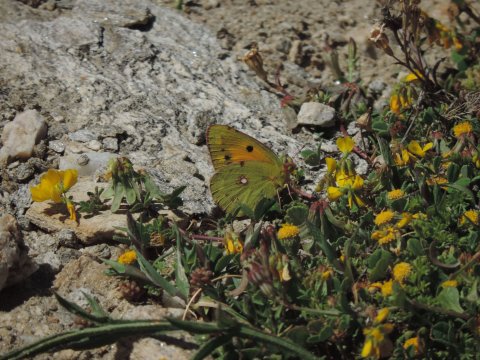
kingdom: Animalia
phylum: Arthropoda
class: Insecta
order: Lepidoptera
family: Pieridae
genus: Colias
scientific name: Colias croceus
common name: Clouded Yellow
